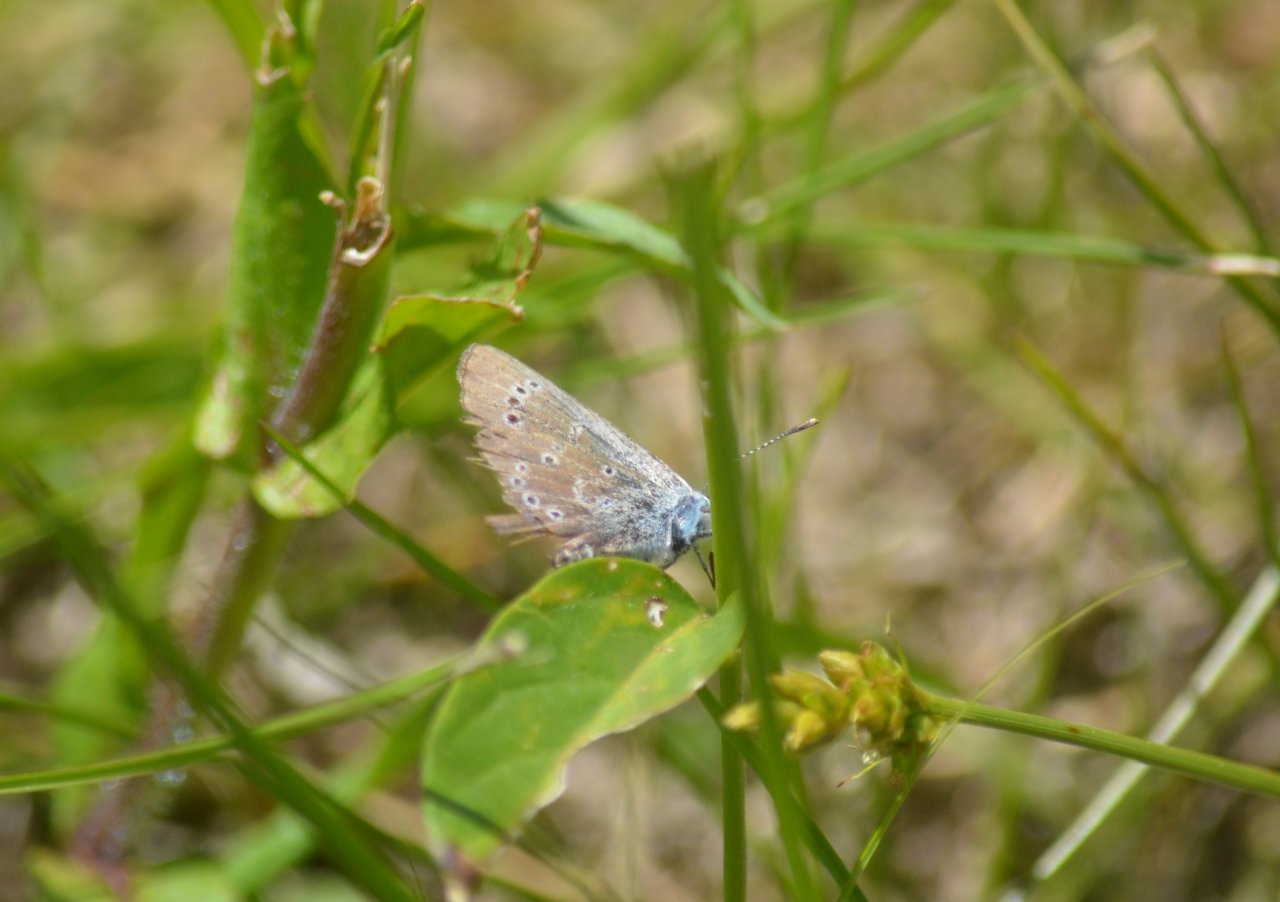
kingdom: Animalia
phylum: Arthropoda
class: Insecta
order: Lepidoptera
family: Lycaenidae
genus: Glaucopsyche
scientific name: Glaucopsyche lygdamus
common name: Silvery Blue
